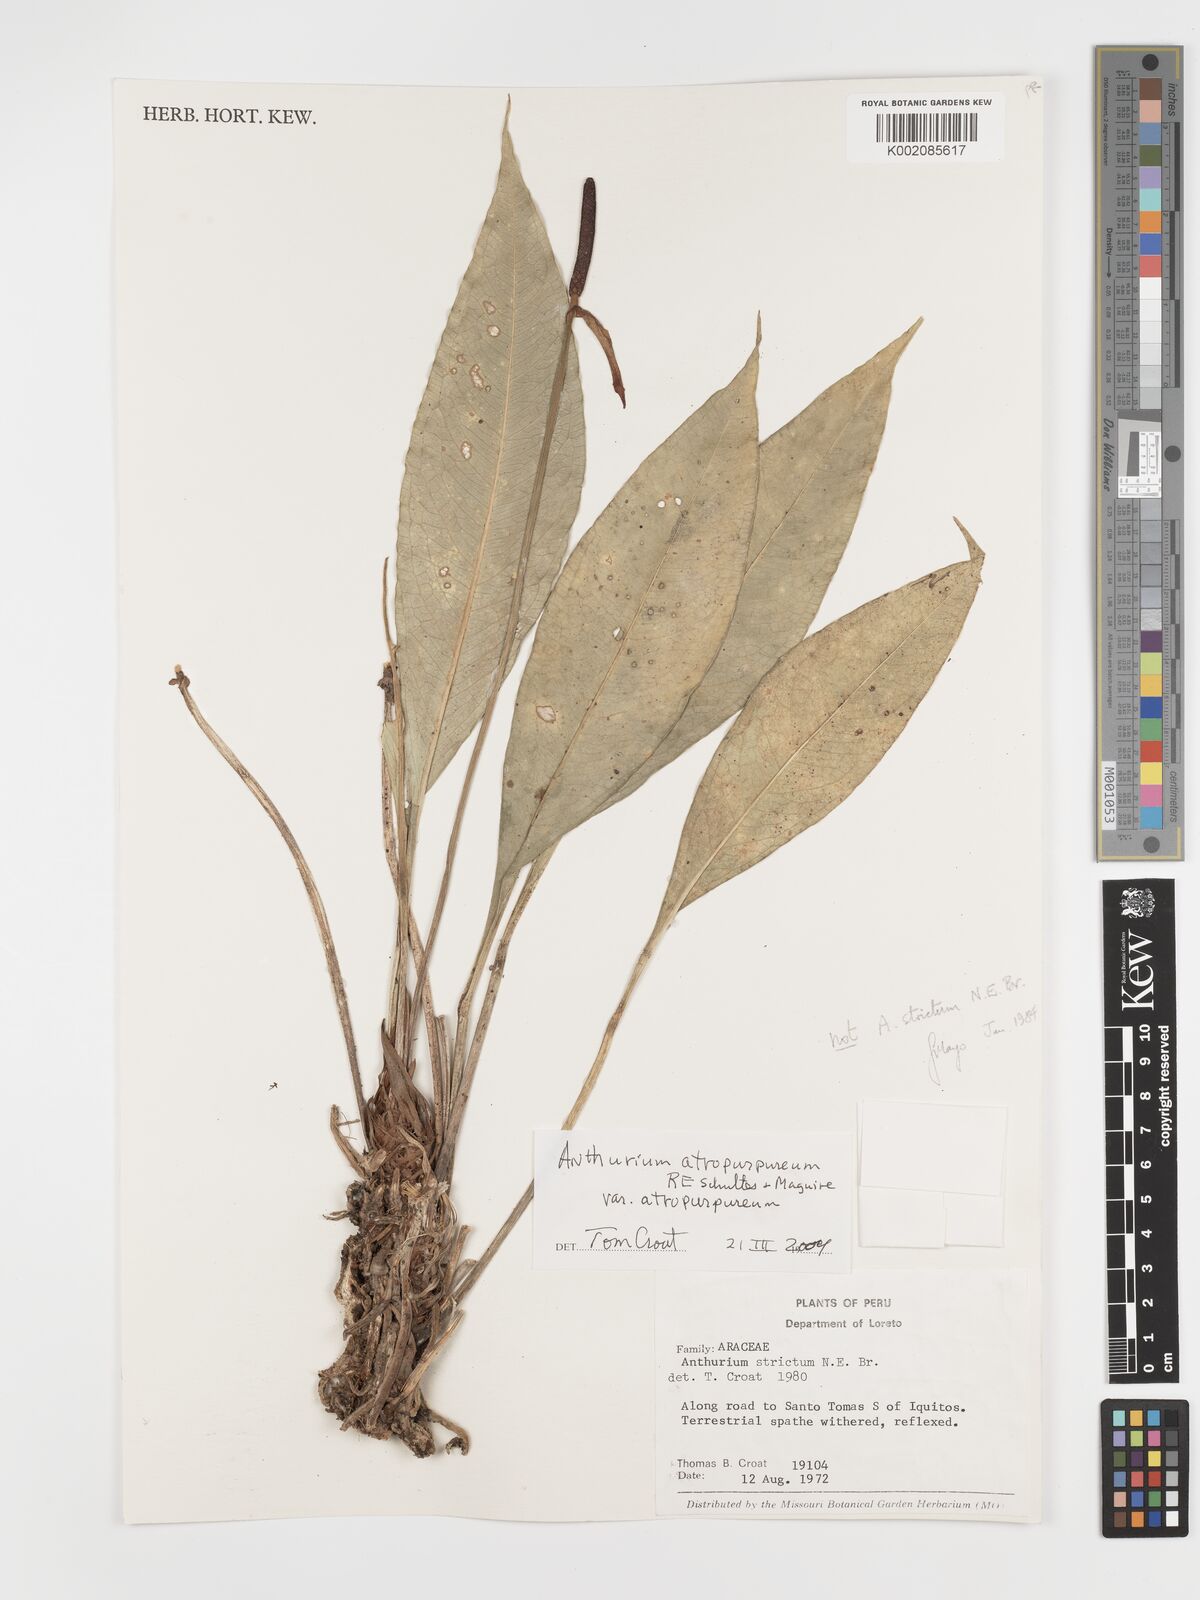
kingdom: Plantae
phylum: Tracheophyta
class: Liliopsida
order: Alismatales
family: Araceae
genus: Anthurium
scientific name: Anthurium atropurpureum
